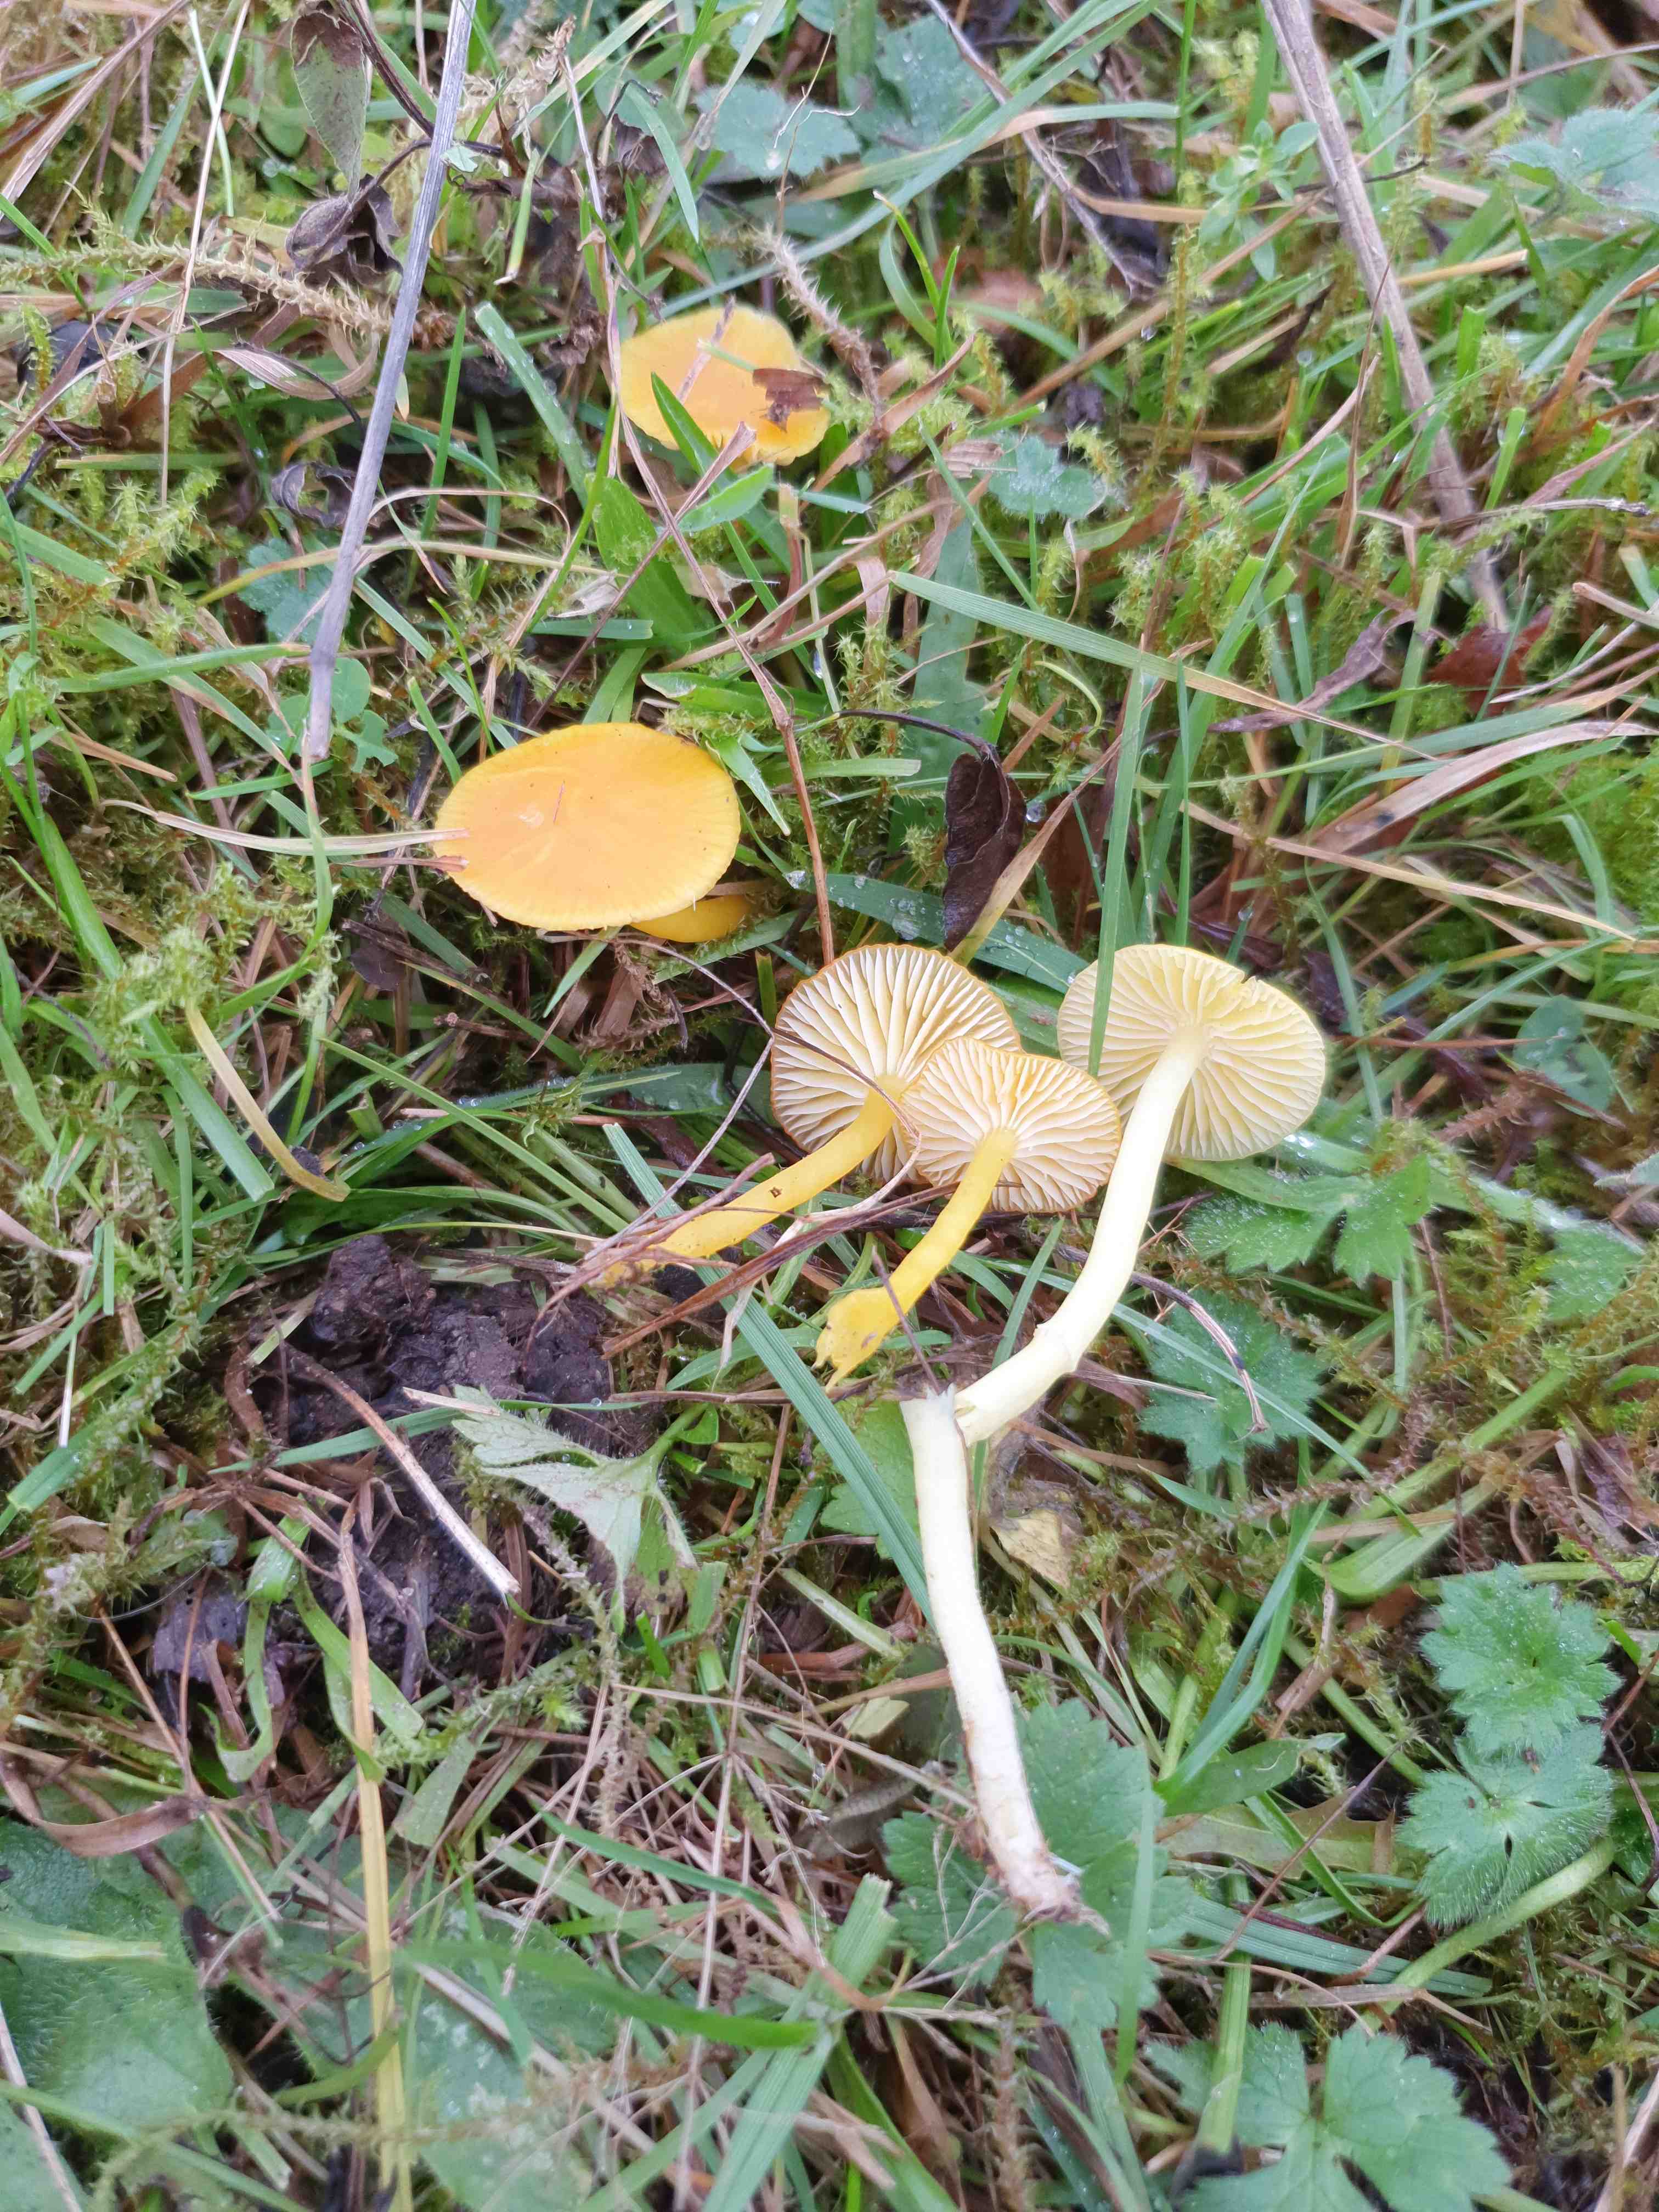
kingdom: Fungi
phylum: Basidiomycota
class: Agaricomycetes
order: Agaricales
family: Hygrophoraceae
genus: Hygrocybe
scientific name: Hygrocybe ceracea
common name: voksgul vokshat
